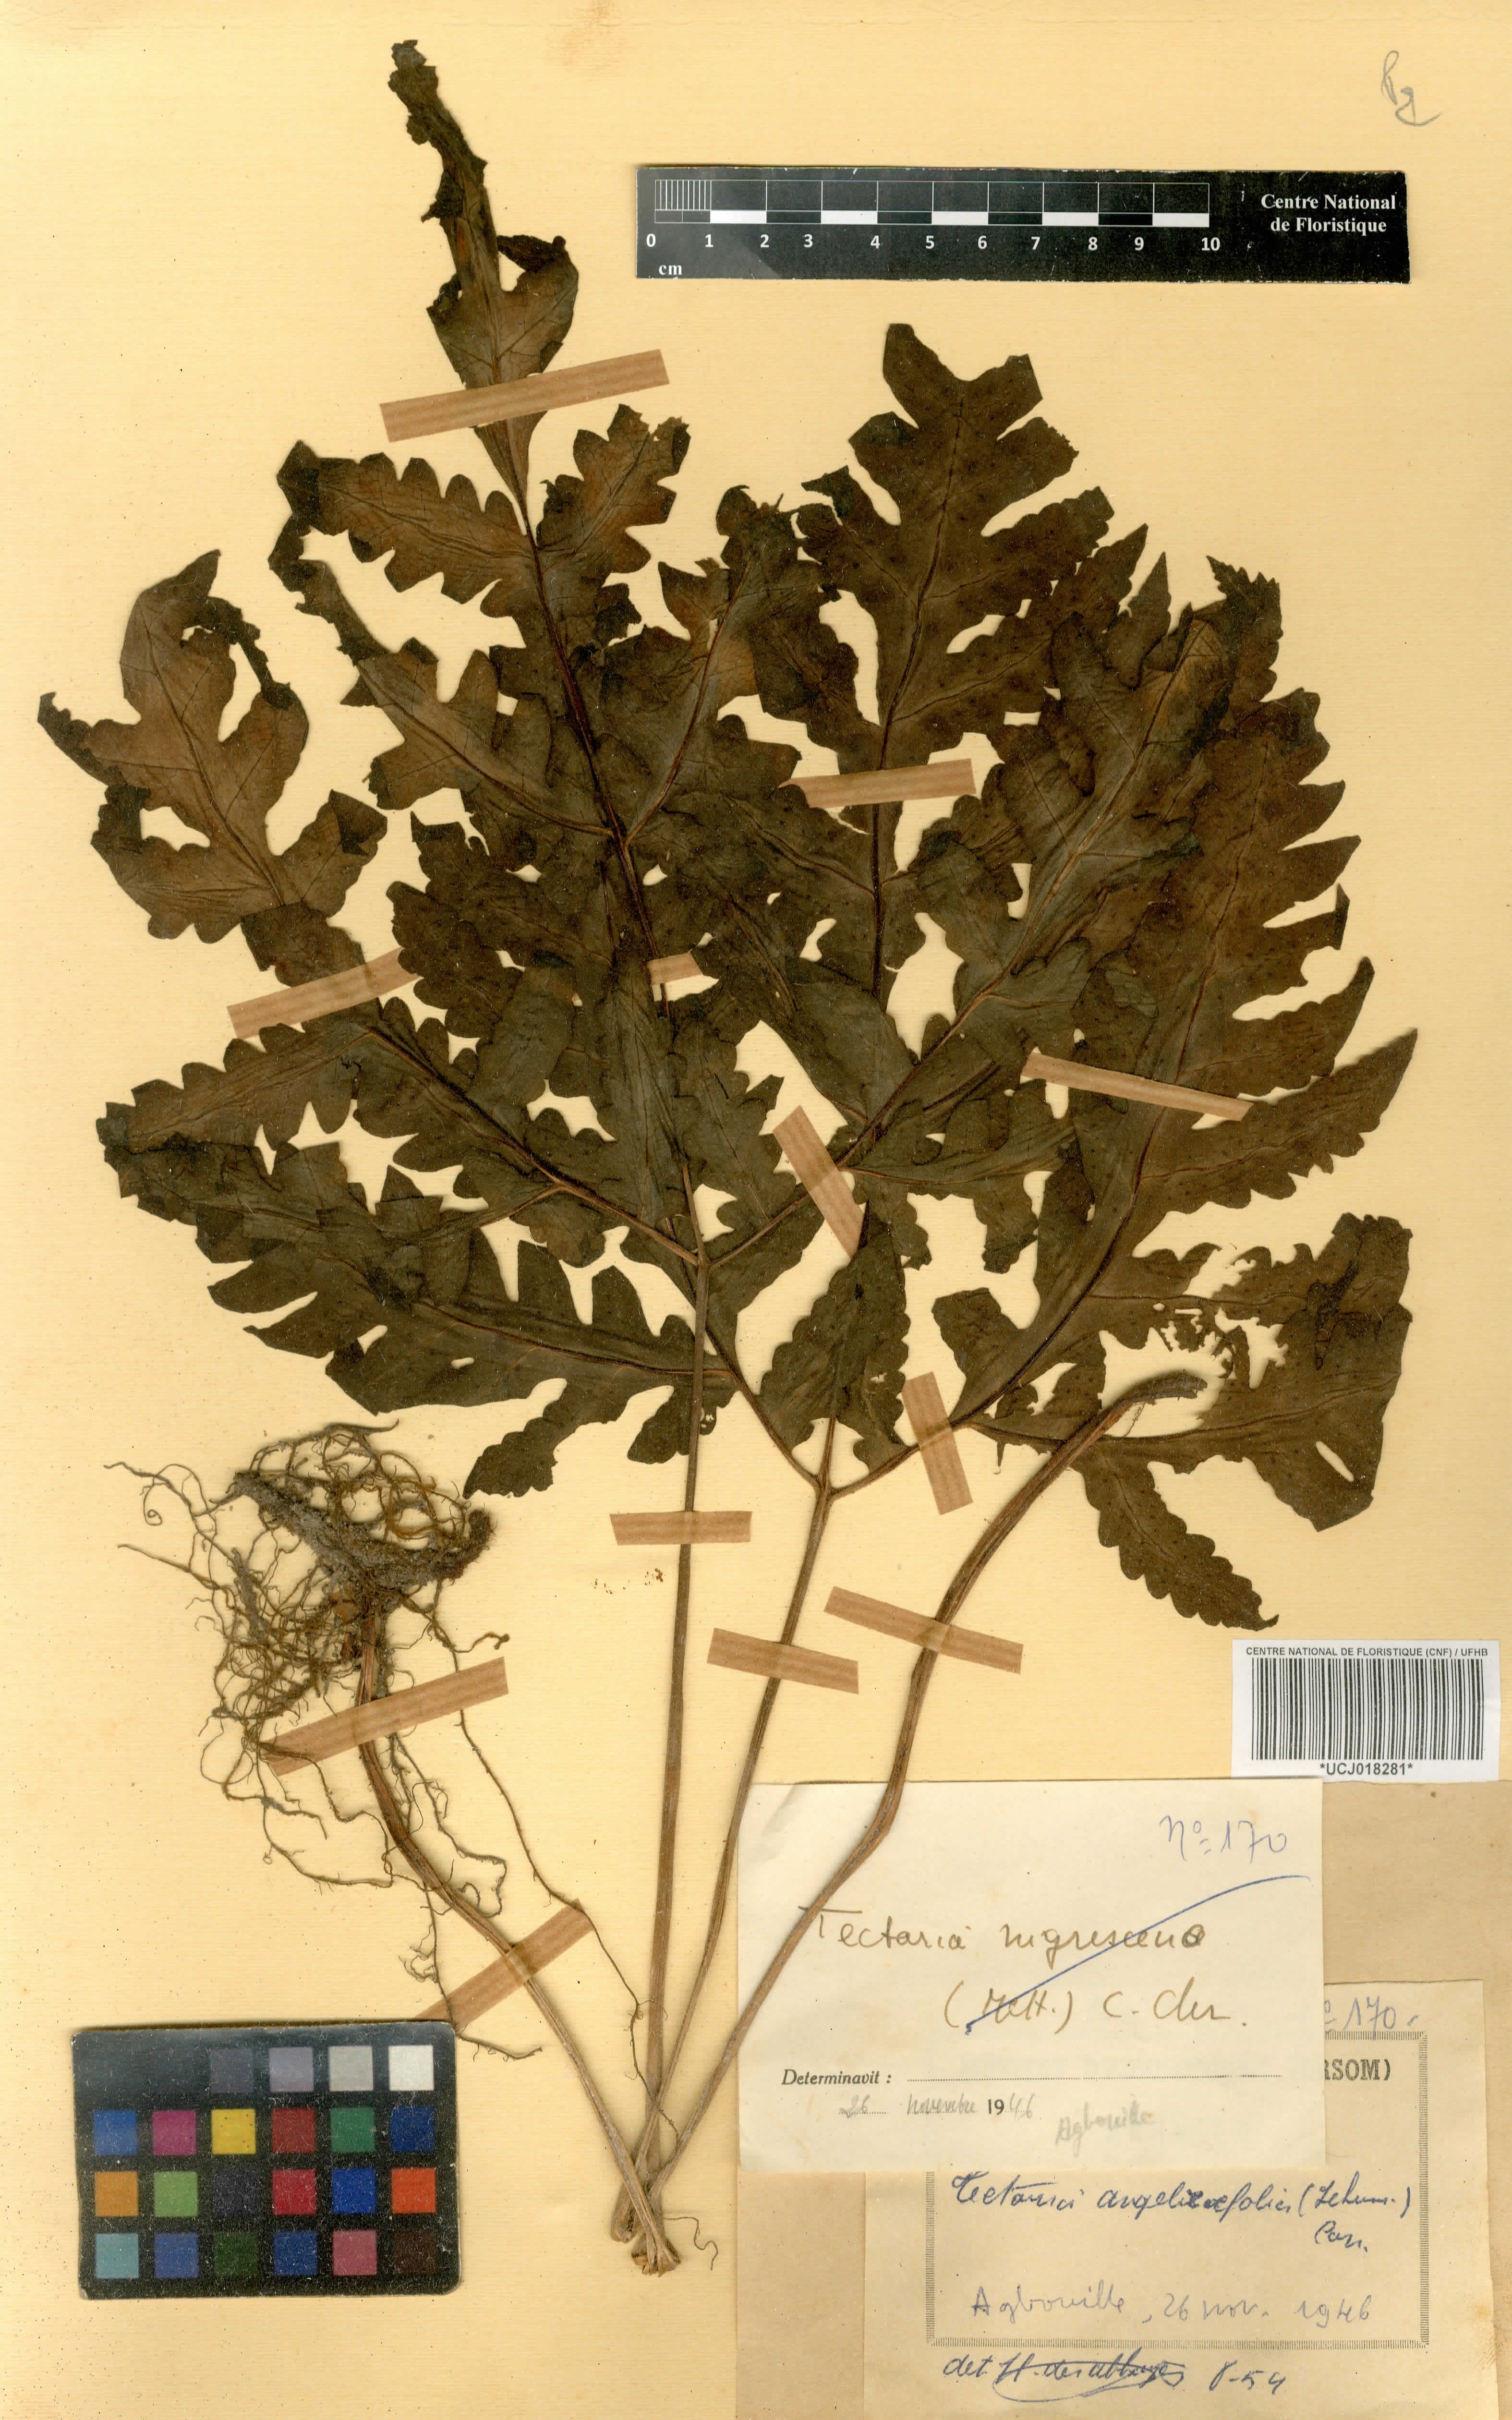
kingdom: Plantae
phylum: Tracheophyta
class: Polypodiopsida
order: Polypodiales
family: Tectariaceae
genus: Tectaria
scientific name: Tectaria angelicifolia
